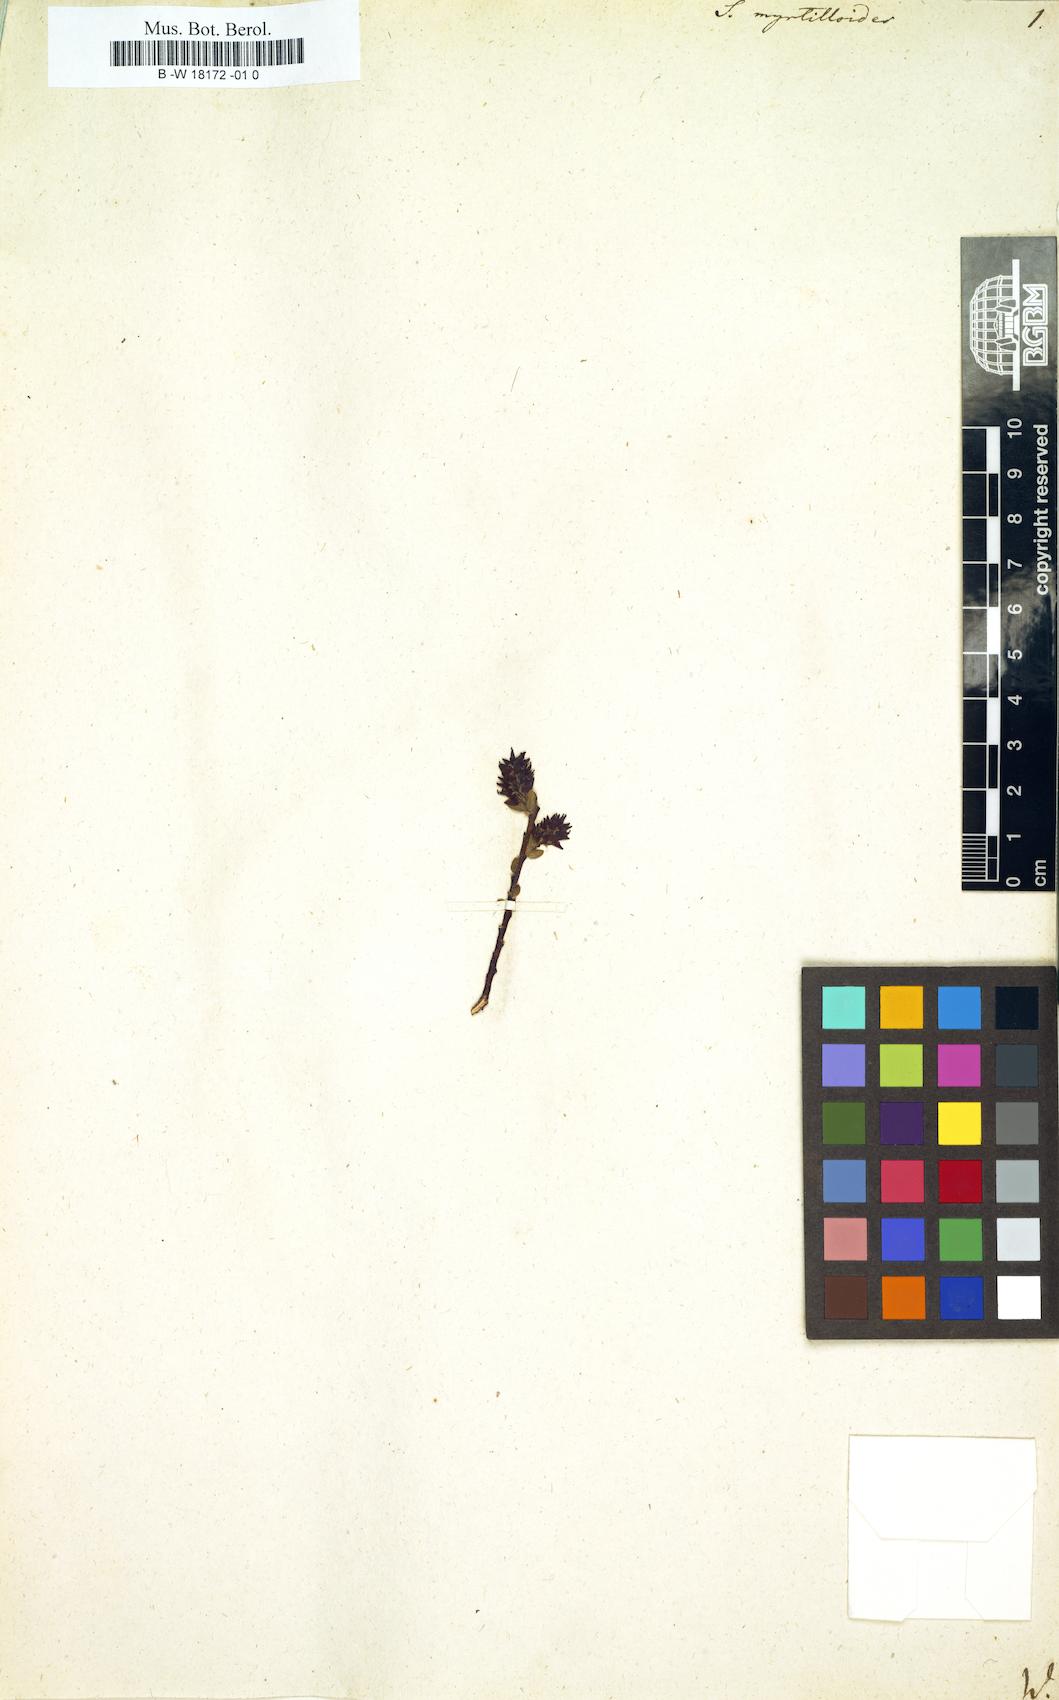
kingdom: Plantae
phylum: Tracheophyta
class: Magnoliopsida
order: Malpighiales
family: Salicaceae
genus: Salix
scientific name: Salix myrtilloides
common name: Myrtle-leaved willow
